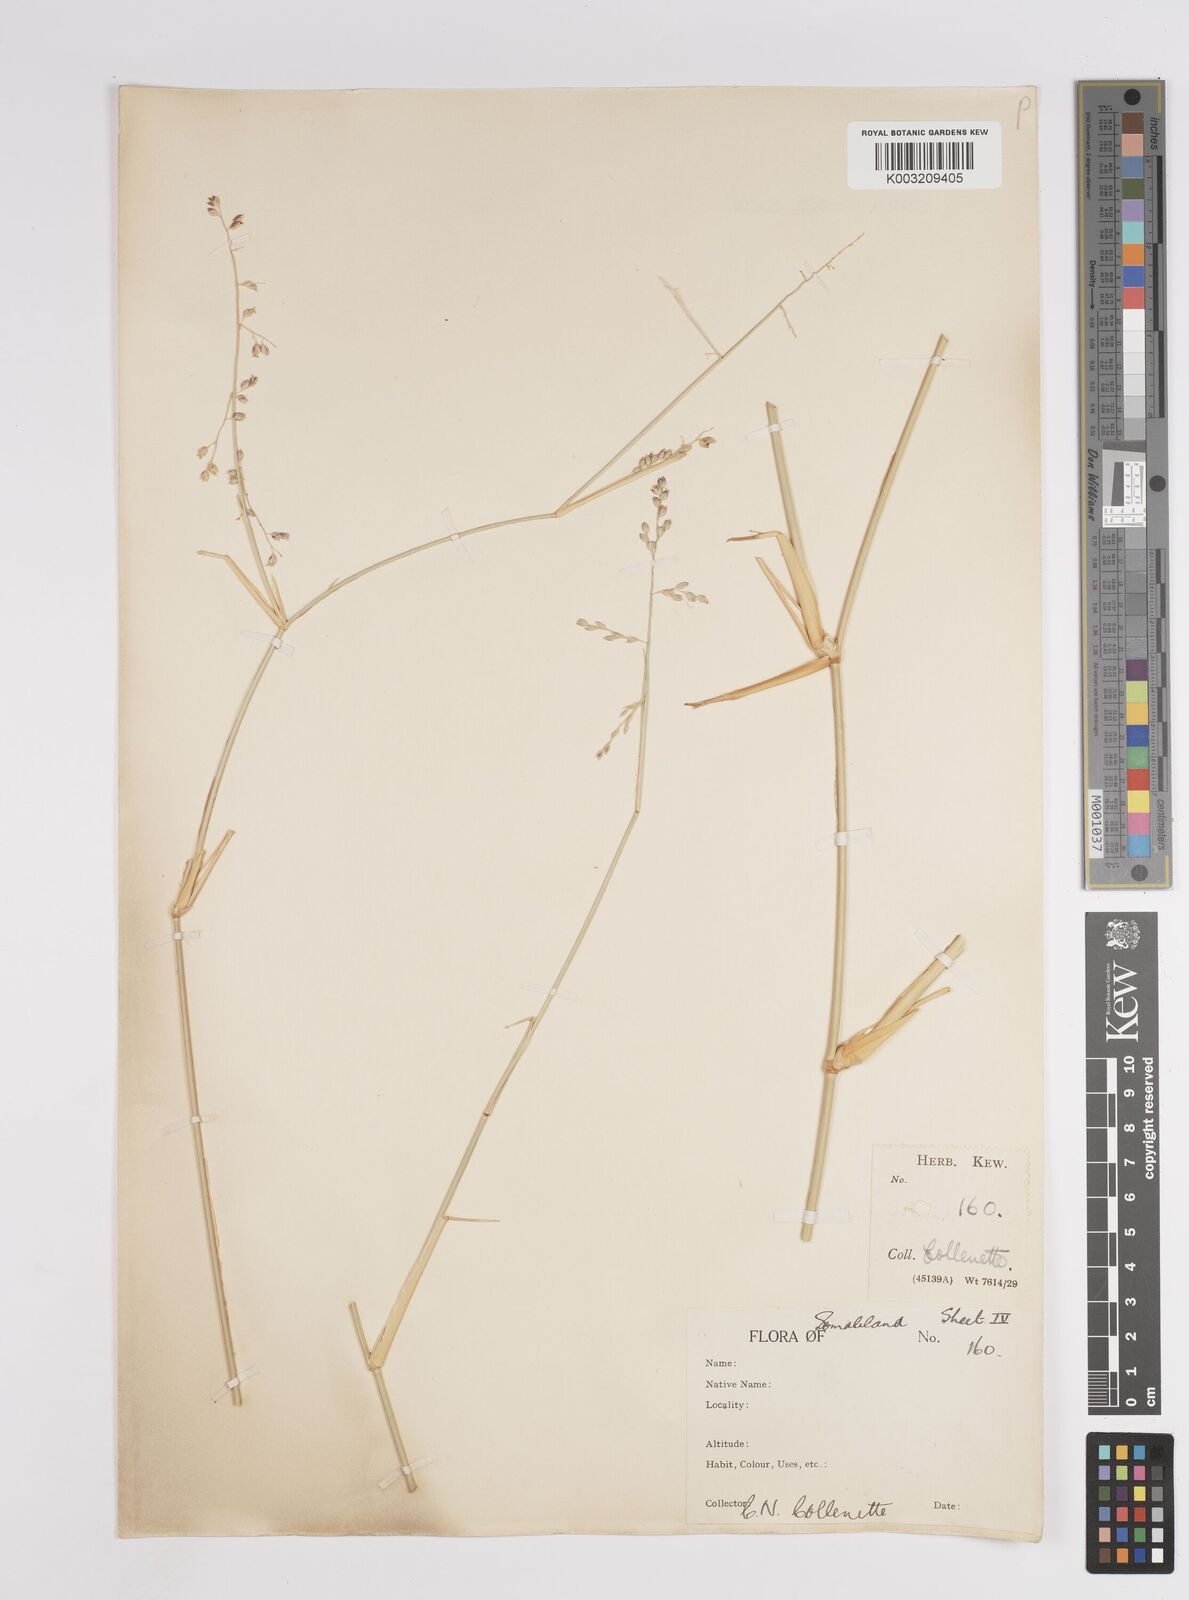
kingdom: Plantae
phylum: Tracheophyta
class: Liliopsida
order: Poales
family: Poaceae
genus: Panicum
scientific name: Panicum turgidum
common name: Desert grass
